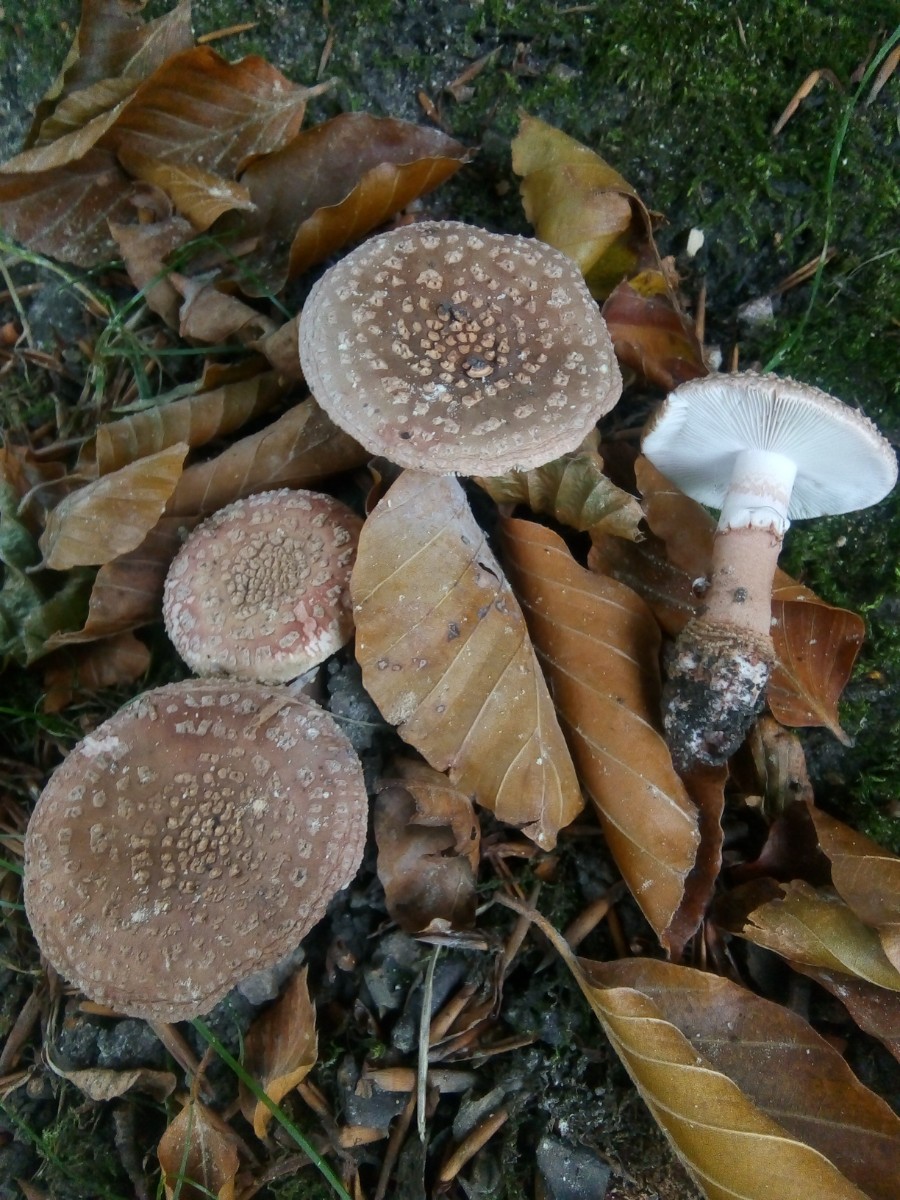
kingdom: Fungi
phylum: Basidiomycota
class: Agaricomycetes
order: Agaricales
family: Amanitaceae
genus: Amanita
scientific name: Amanita rubescens
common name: rødmende fluesvamp
